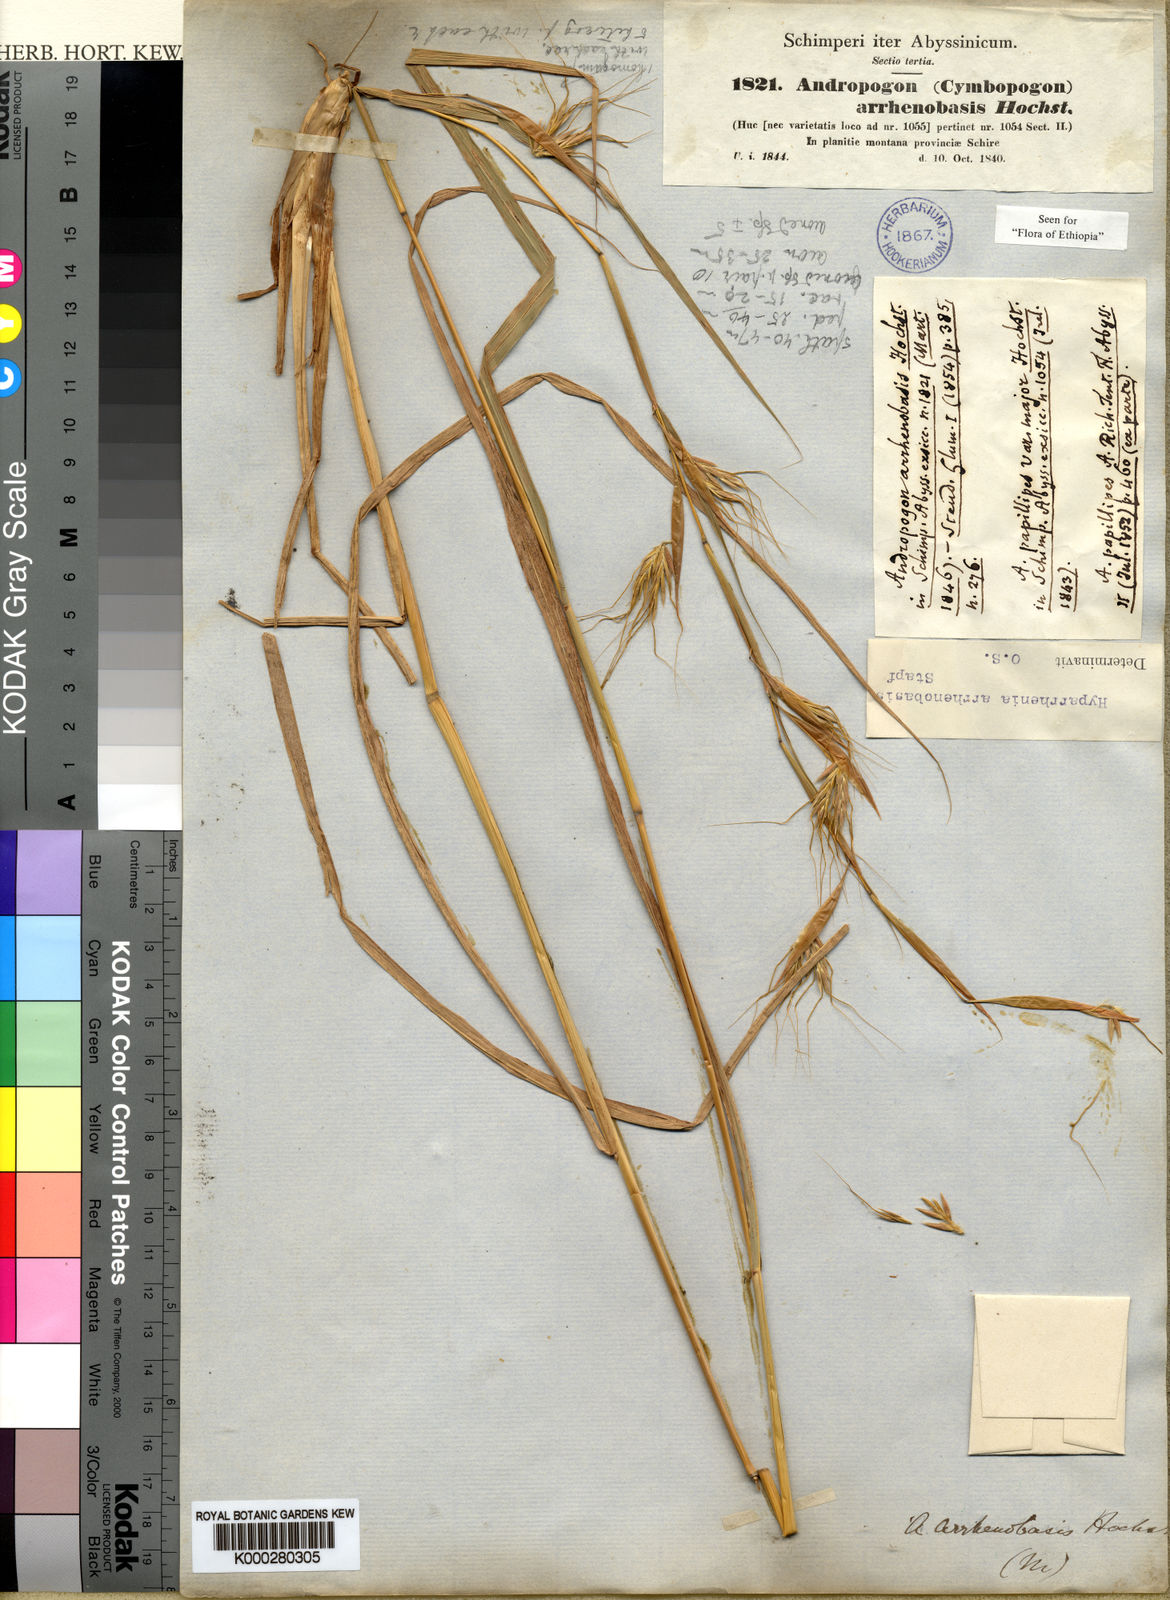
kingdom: Plantae
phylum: Tracheophyta
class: Liliopsida
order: Poales
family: Poaceae
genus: Hyparrhenia
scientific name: Hyparrhenia arrhenobasis
